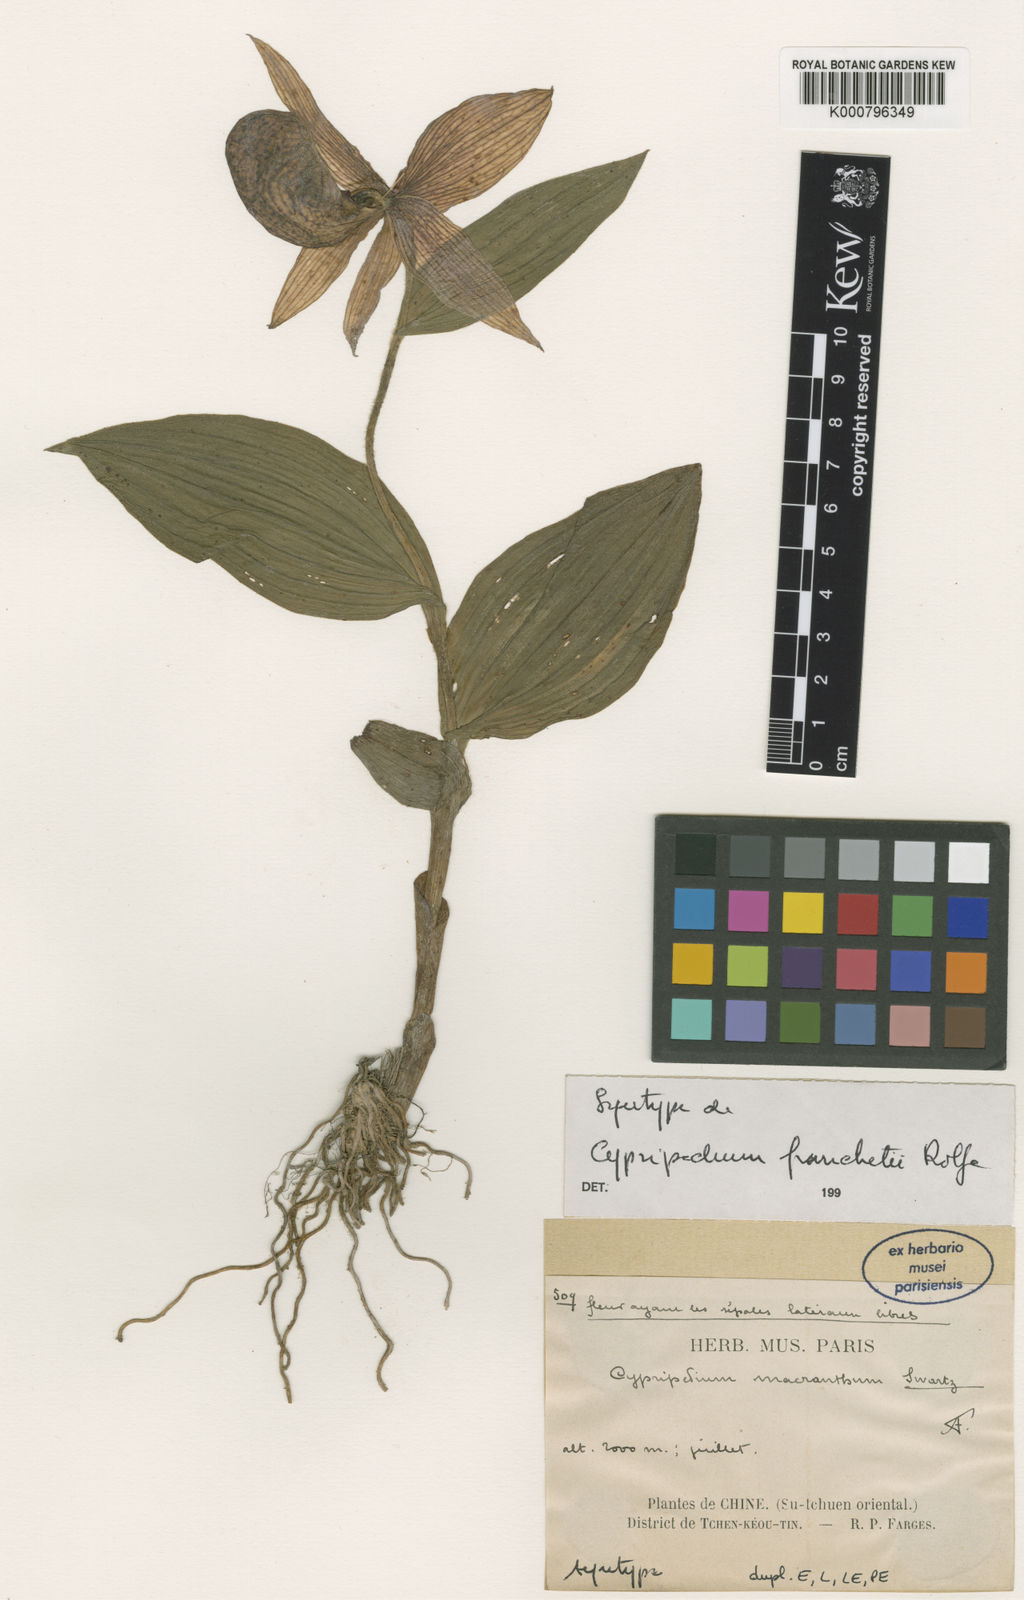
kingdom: Plantae
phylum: Tracheophyta
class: Liliopsida
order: Asparagales
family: Orchidaceae
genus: Cypripedium
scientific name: Cypripedium franchetii
